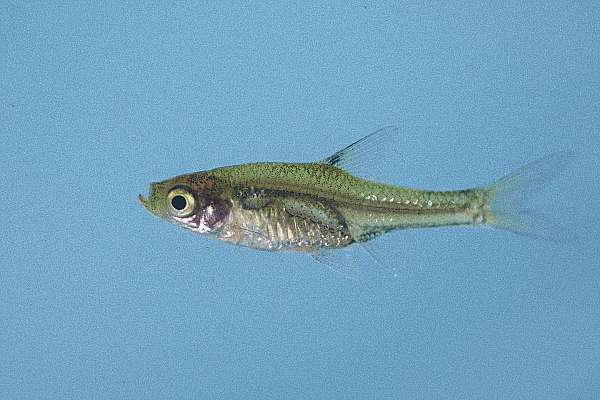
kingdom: Animalia
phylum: Chordata
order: Cypriniformes
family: Cyprinidae
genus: Coptostomabarbus
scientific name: Coptostomabarbus wittei
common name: Upjaw barb
